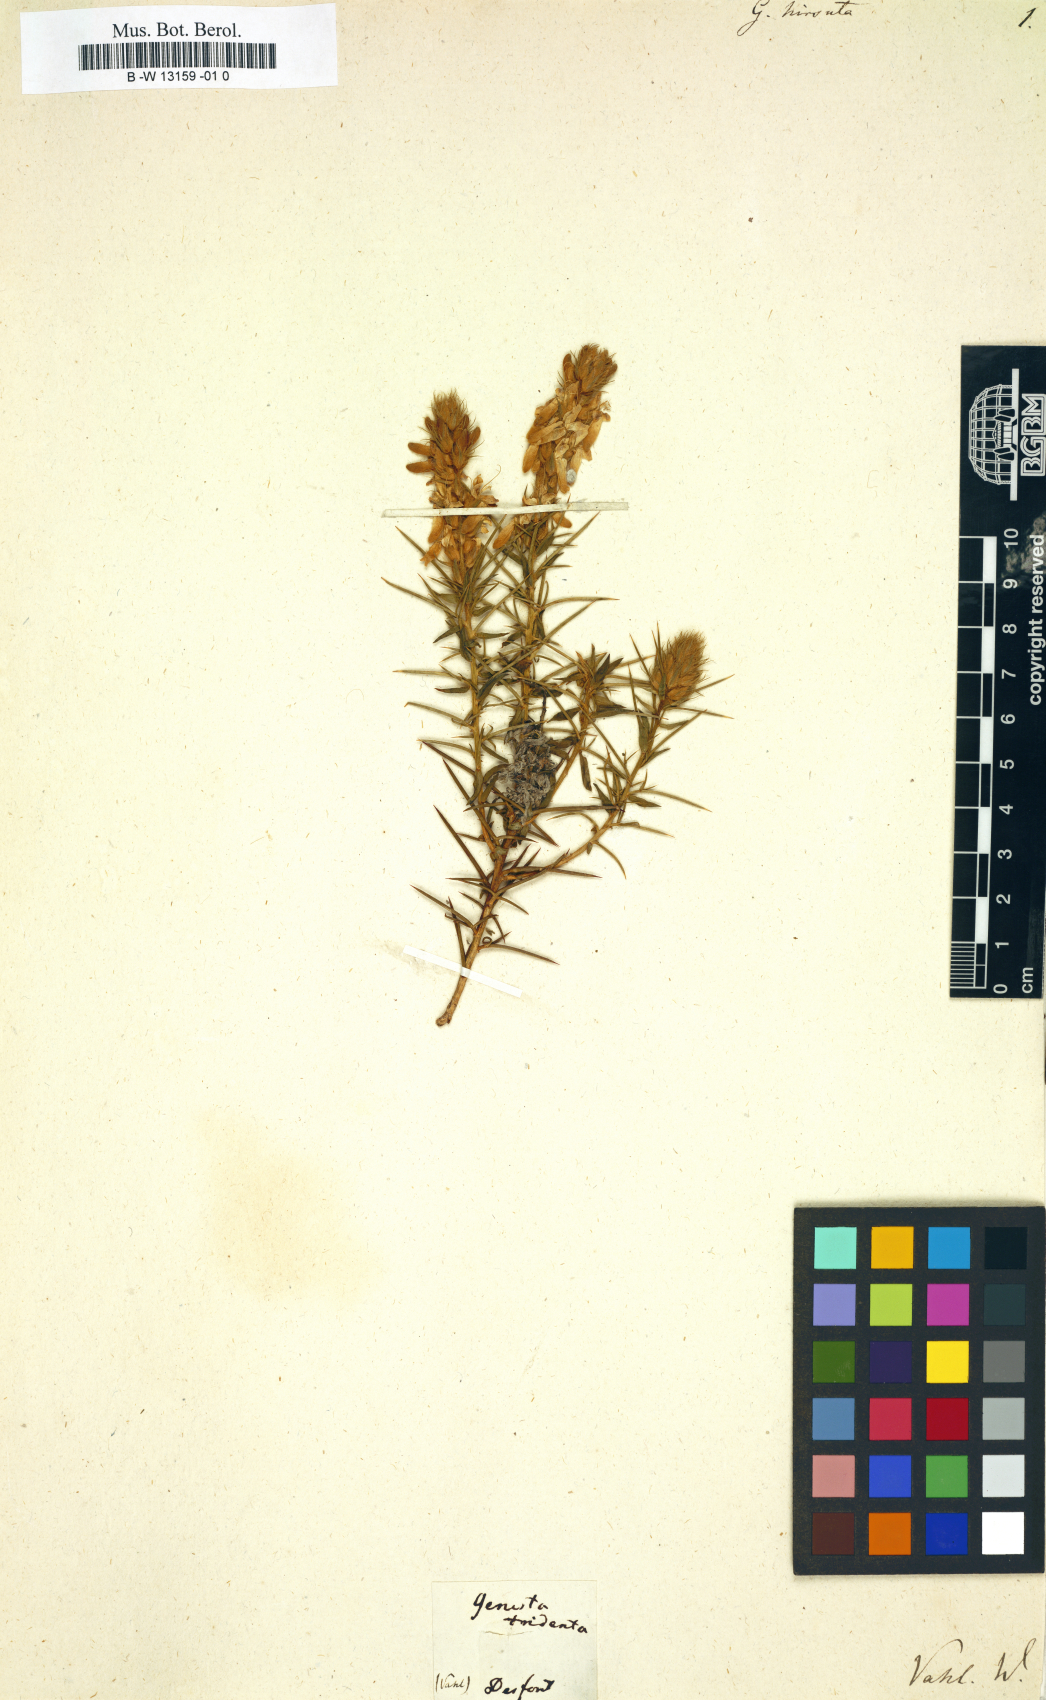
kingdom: Plantae
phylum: Tracheophyta
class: Magnoliopsida
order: Fabales
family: Fabaceae
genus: Genista
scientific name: Genista hirsuta
